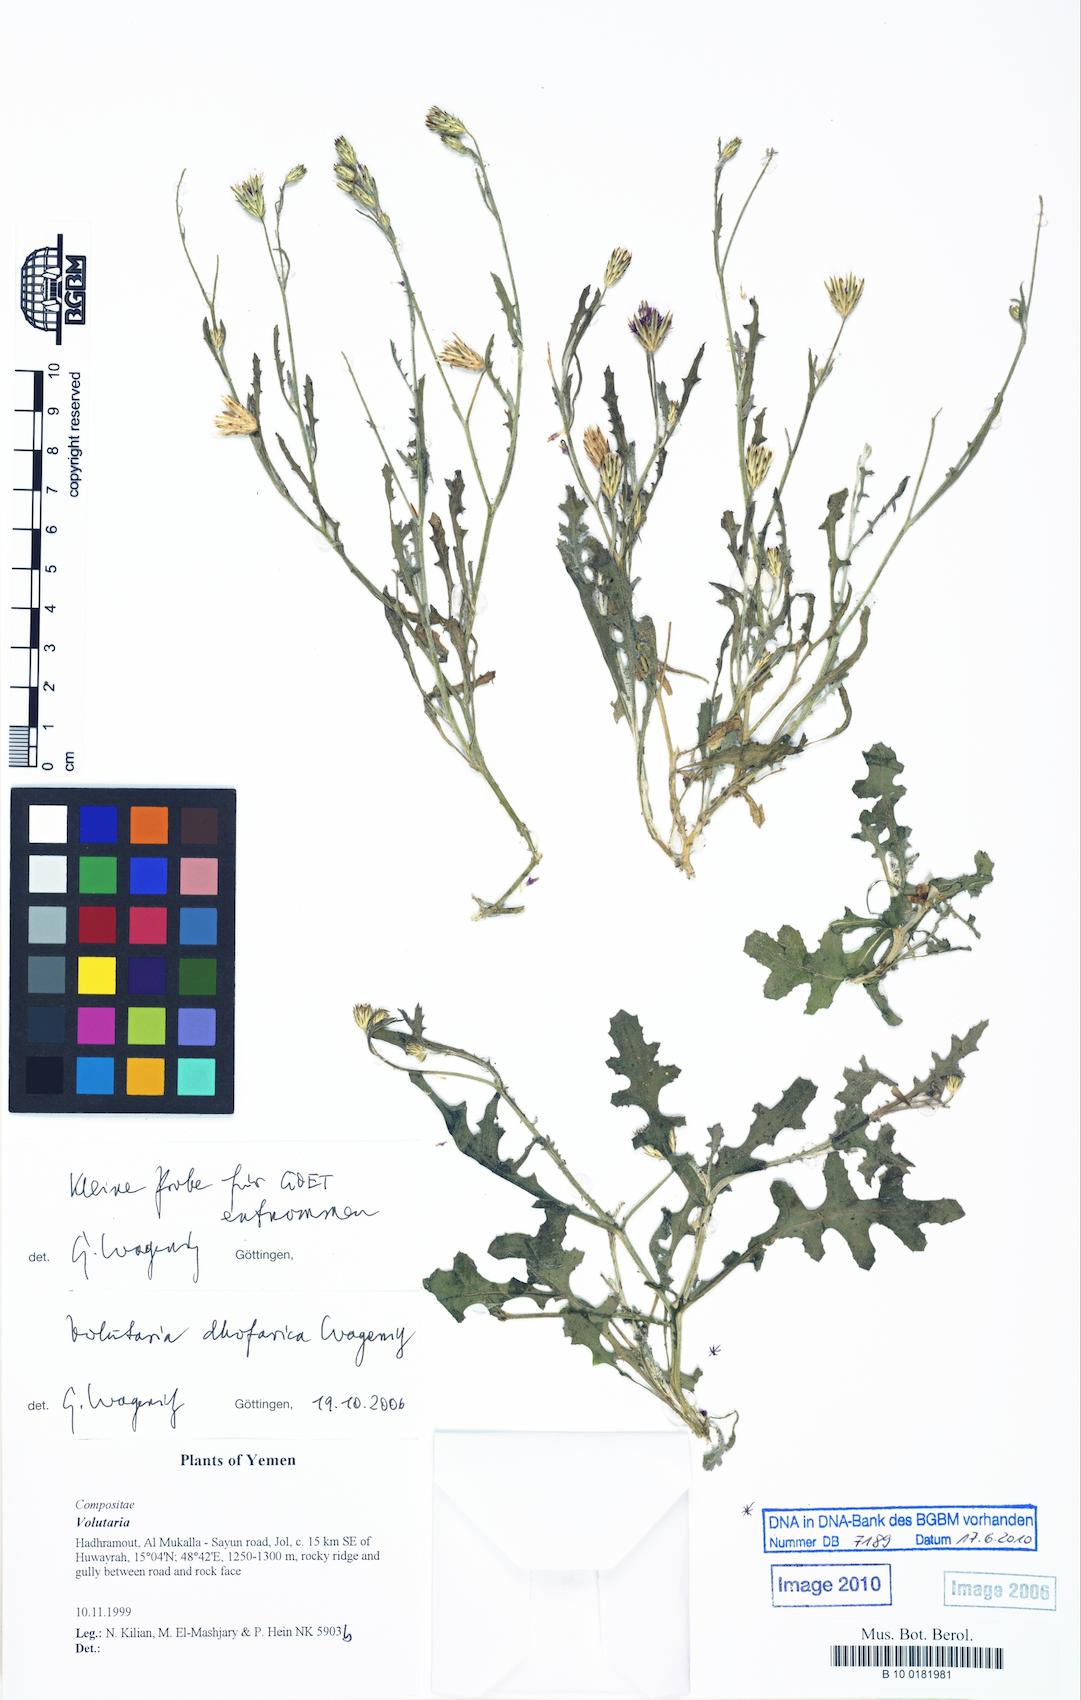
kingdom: Plantae
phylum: Tracheophyta
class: Magnoliopsida
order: Asterales
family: Asteraceae
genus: Volutaria
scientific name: Volutaria dhofarica
